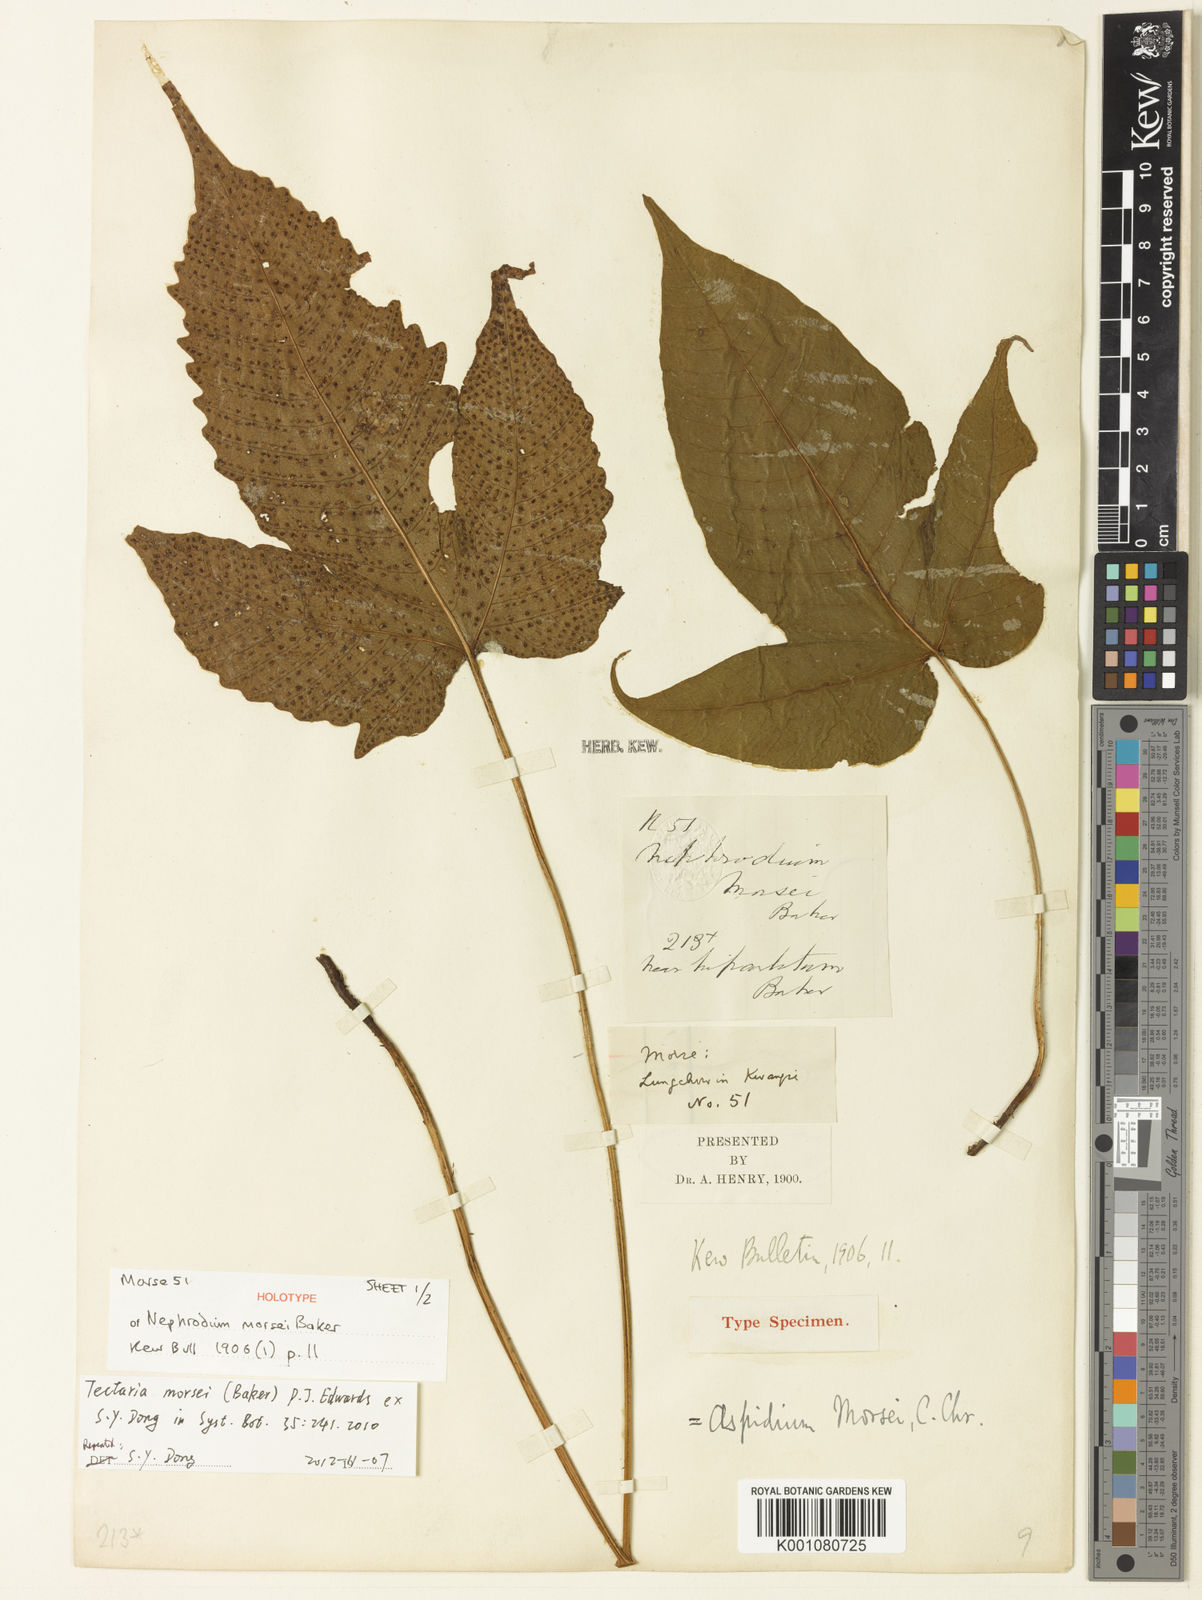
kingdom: Plantae
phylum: Tracheophyta
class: Polypodiopsida
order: Polypodiales
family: Tectariaceae
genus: Tectaria
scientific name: Tectaria polymorpha
